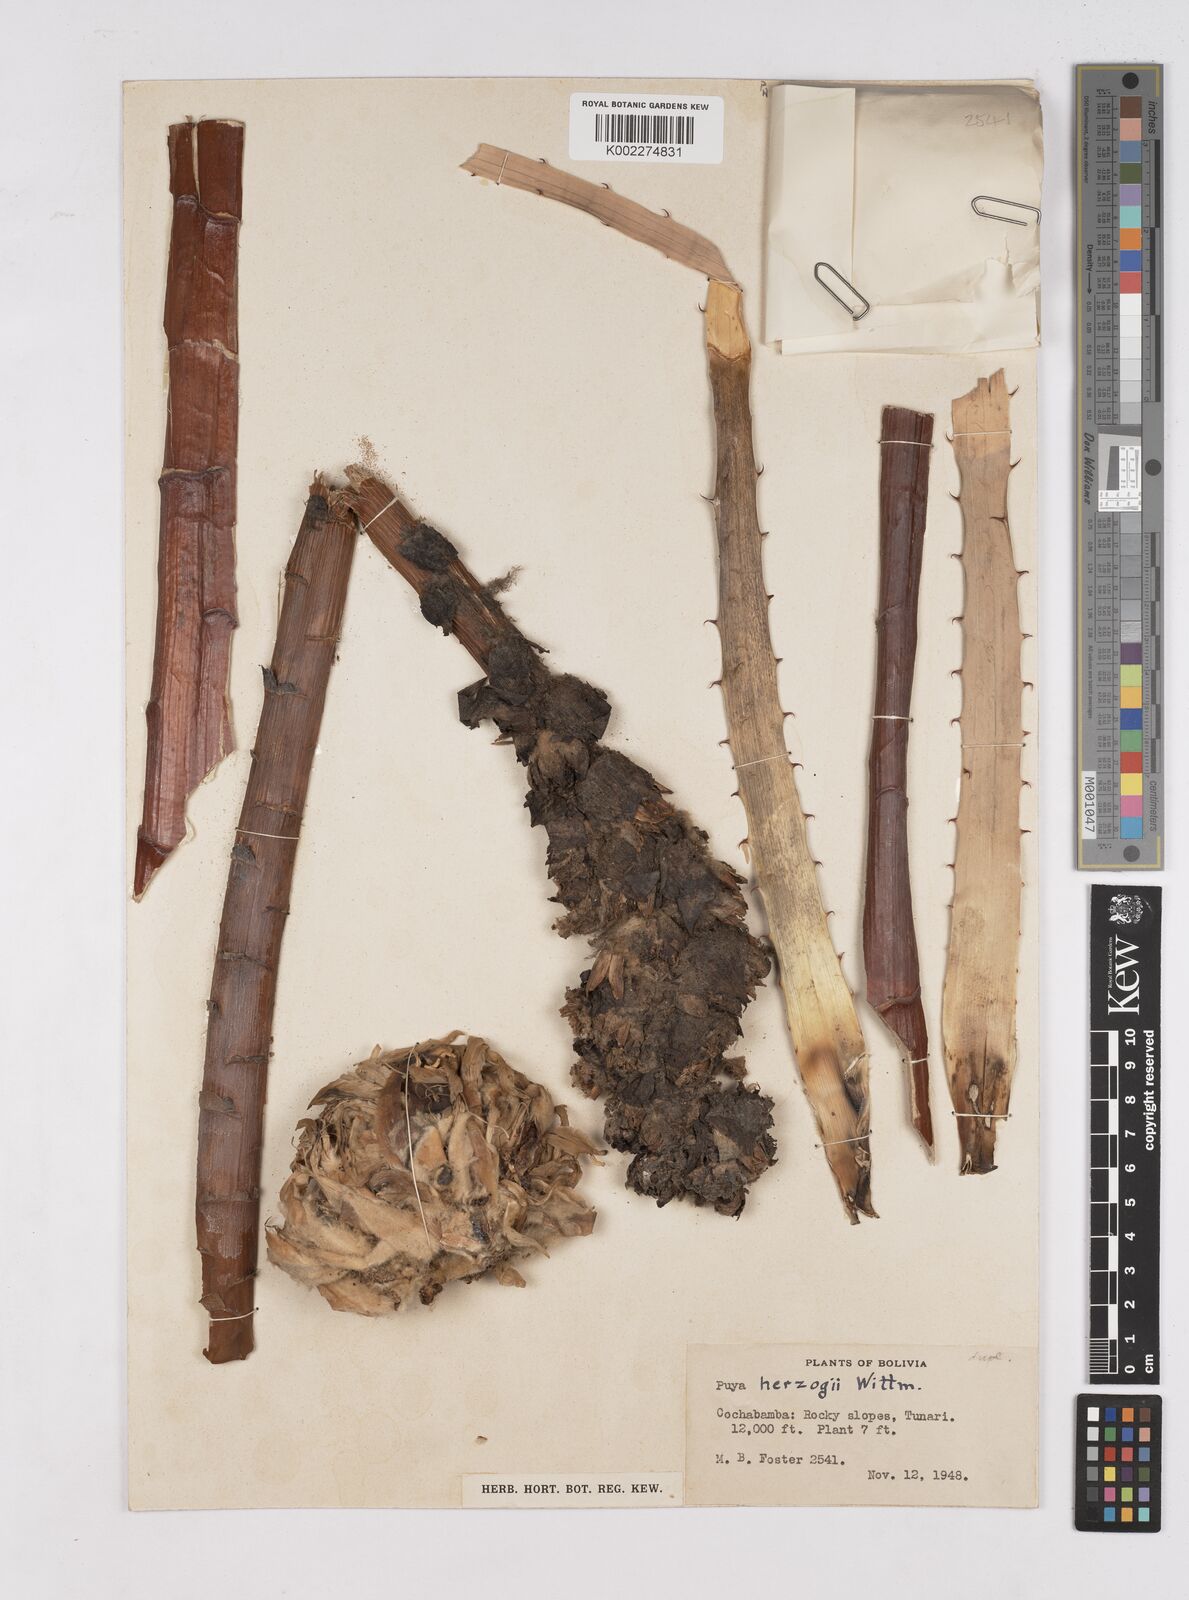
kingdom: Plantae
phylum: Tracheophyta
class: Liliopsida
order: Poales
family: Bromeliaceae
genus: Puya
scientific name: Puya herzogii
